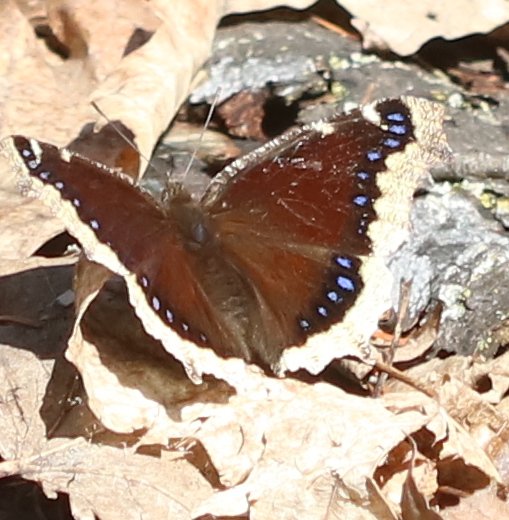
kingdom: Animalia
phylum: Arthropoda
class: Insecta
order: Lepidoptera
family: Nymphalidae
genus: Nymphalis
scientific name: Nymphalis antiopa
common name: Mourning Cloak
